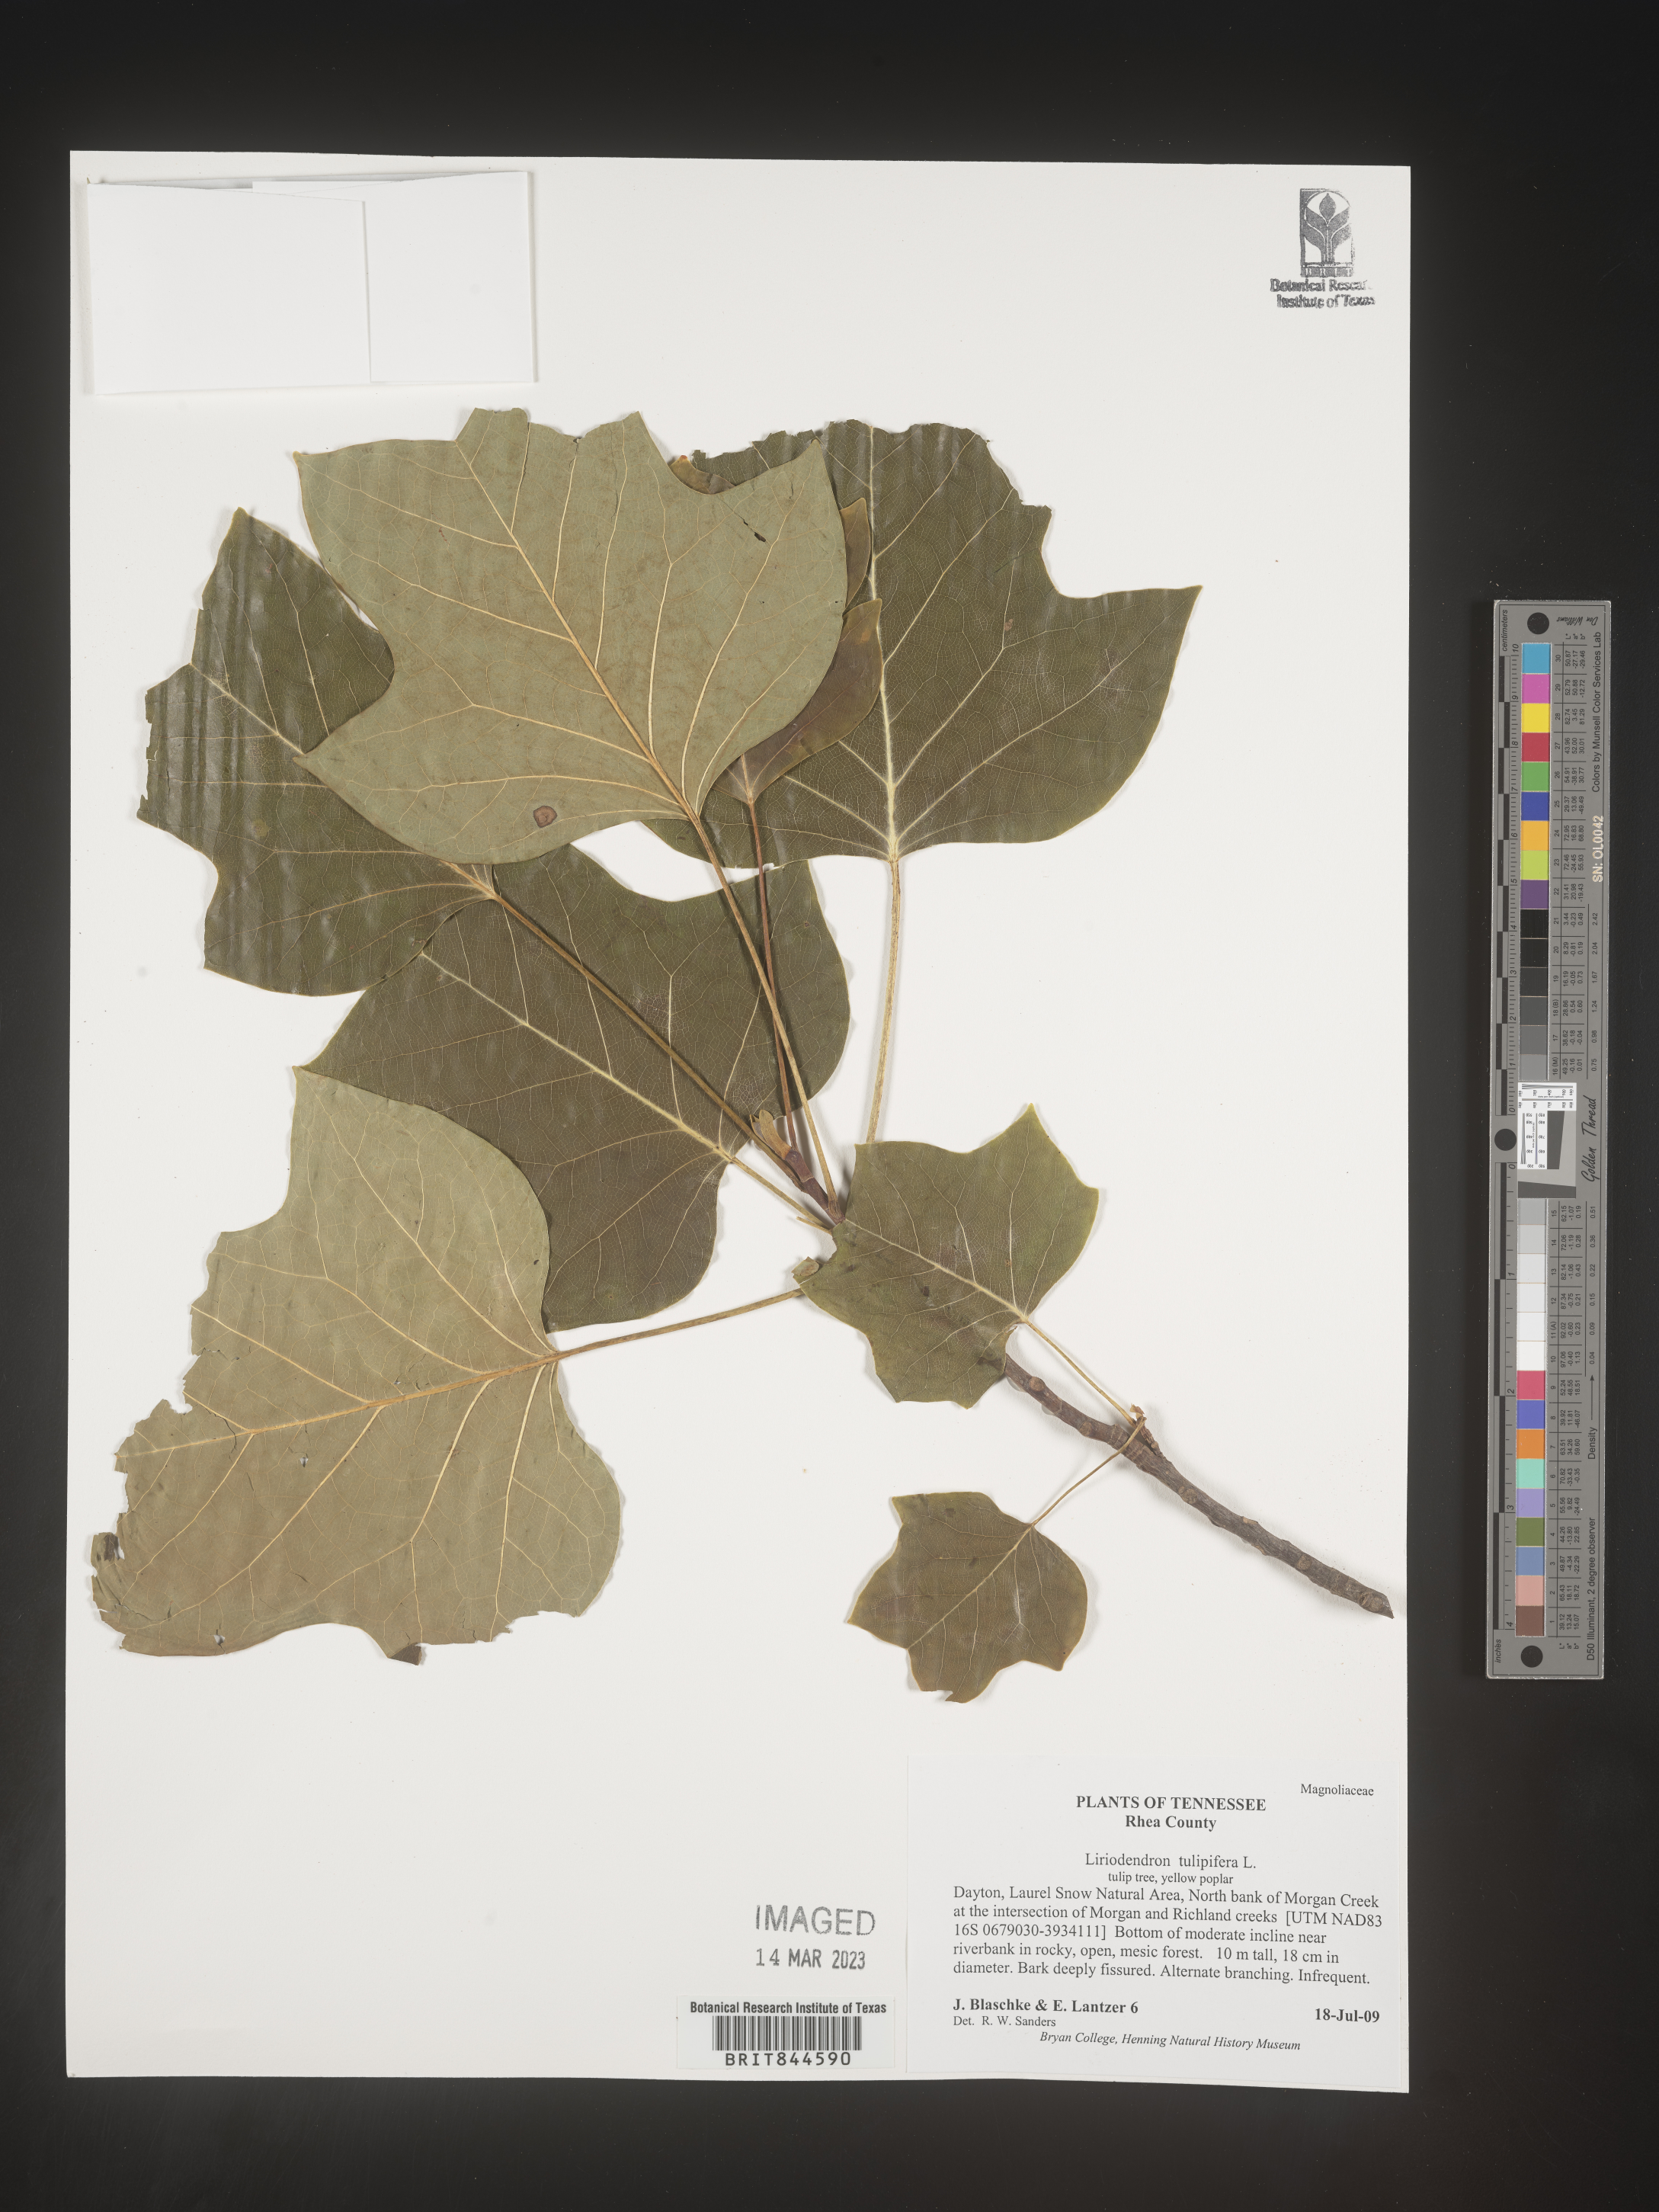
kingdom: Plantae
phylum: Tracheophyta
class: Magnoliopsida
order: Magnoliales
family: Magnoliaceae
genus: Liriodendron
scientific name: Liriodendron tulipifera
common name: Tulip tree
